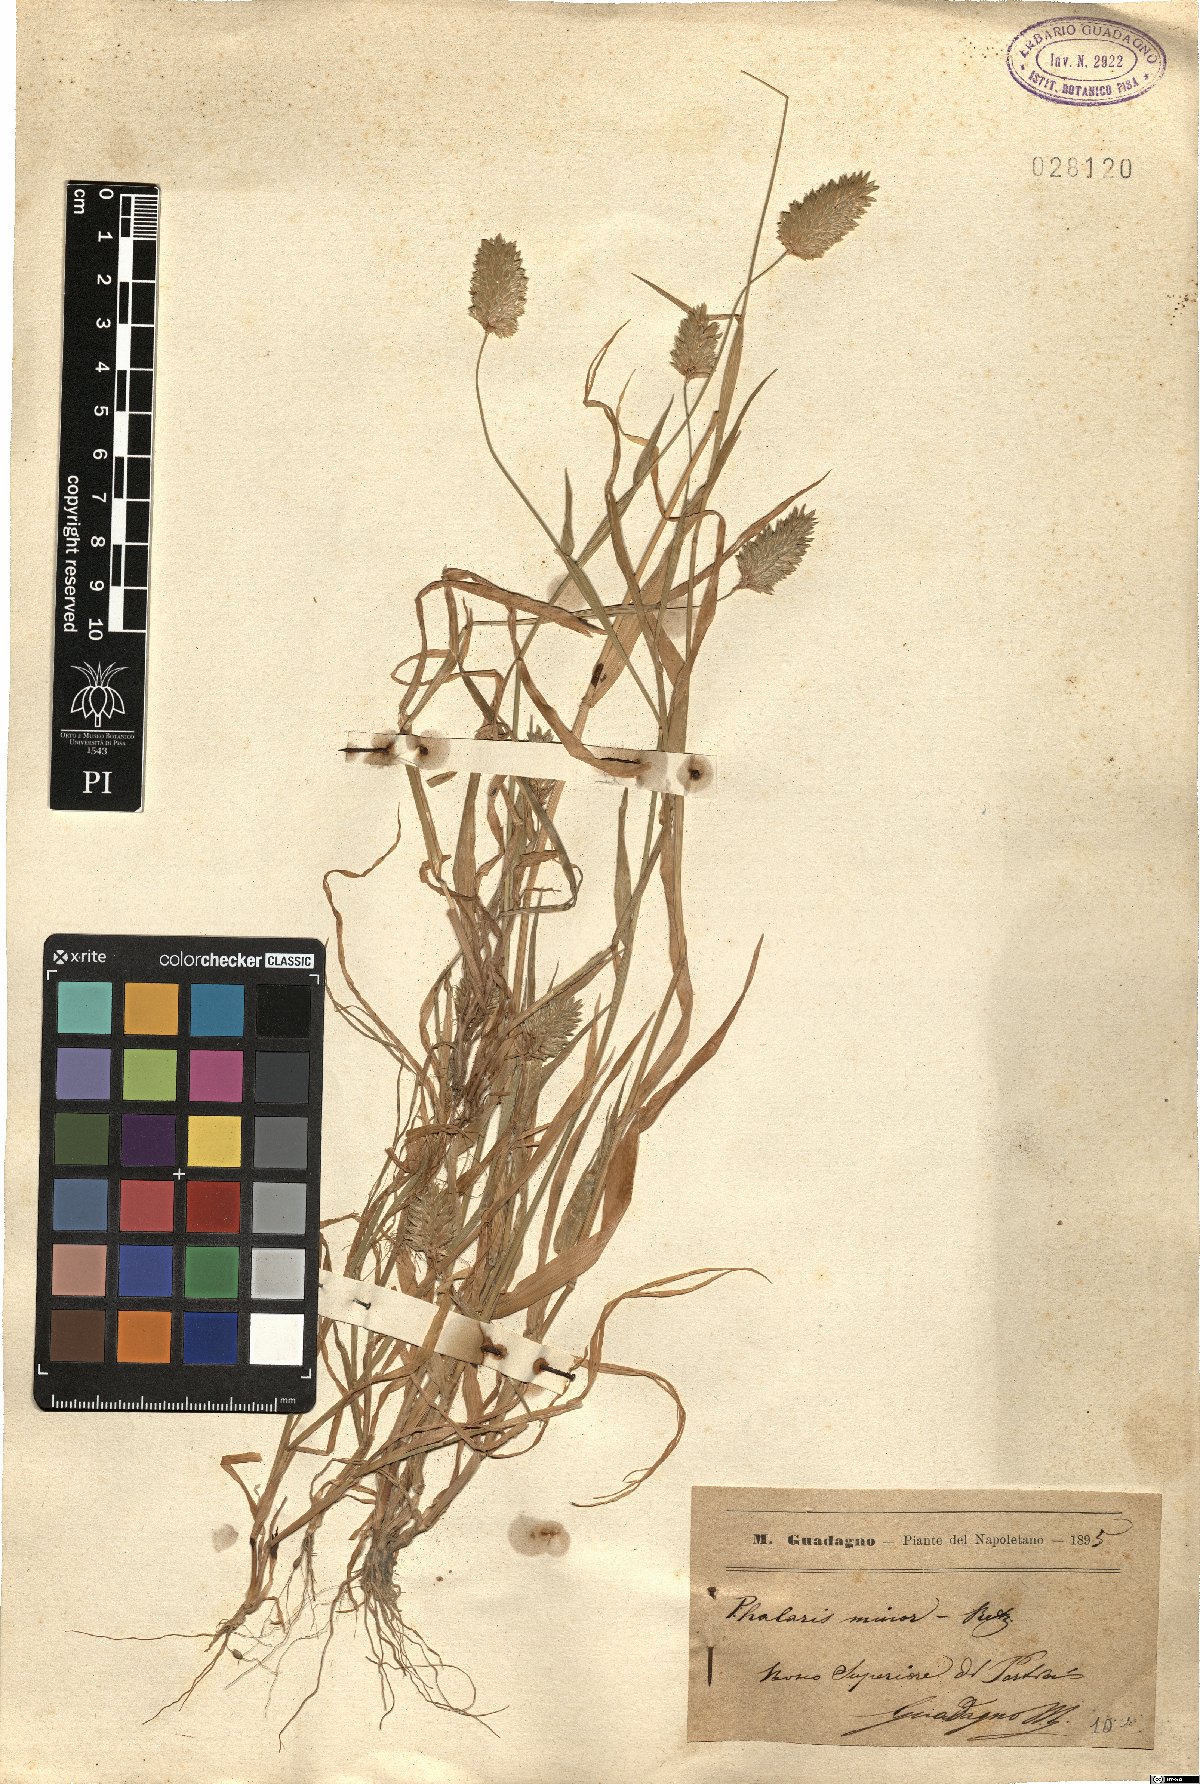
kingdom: Plantae
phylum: Tracheophyta
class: Liliopsida
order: Poales
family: Poaceae
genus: Phalaris
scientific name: Phalaris minor
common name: Littleseed canarygrass
